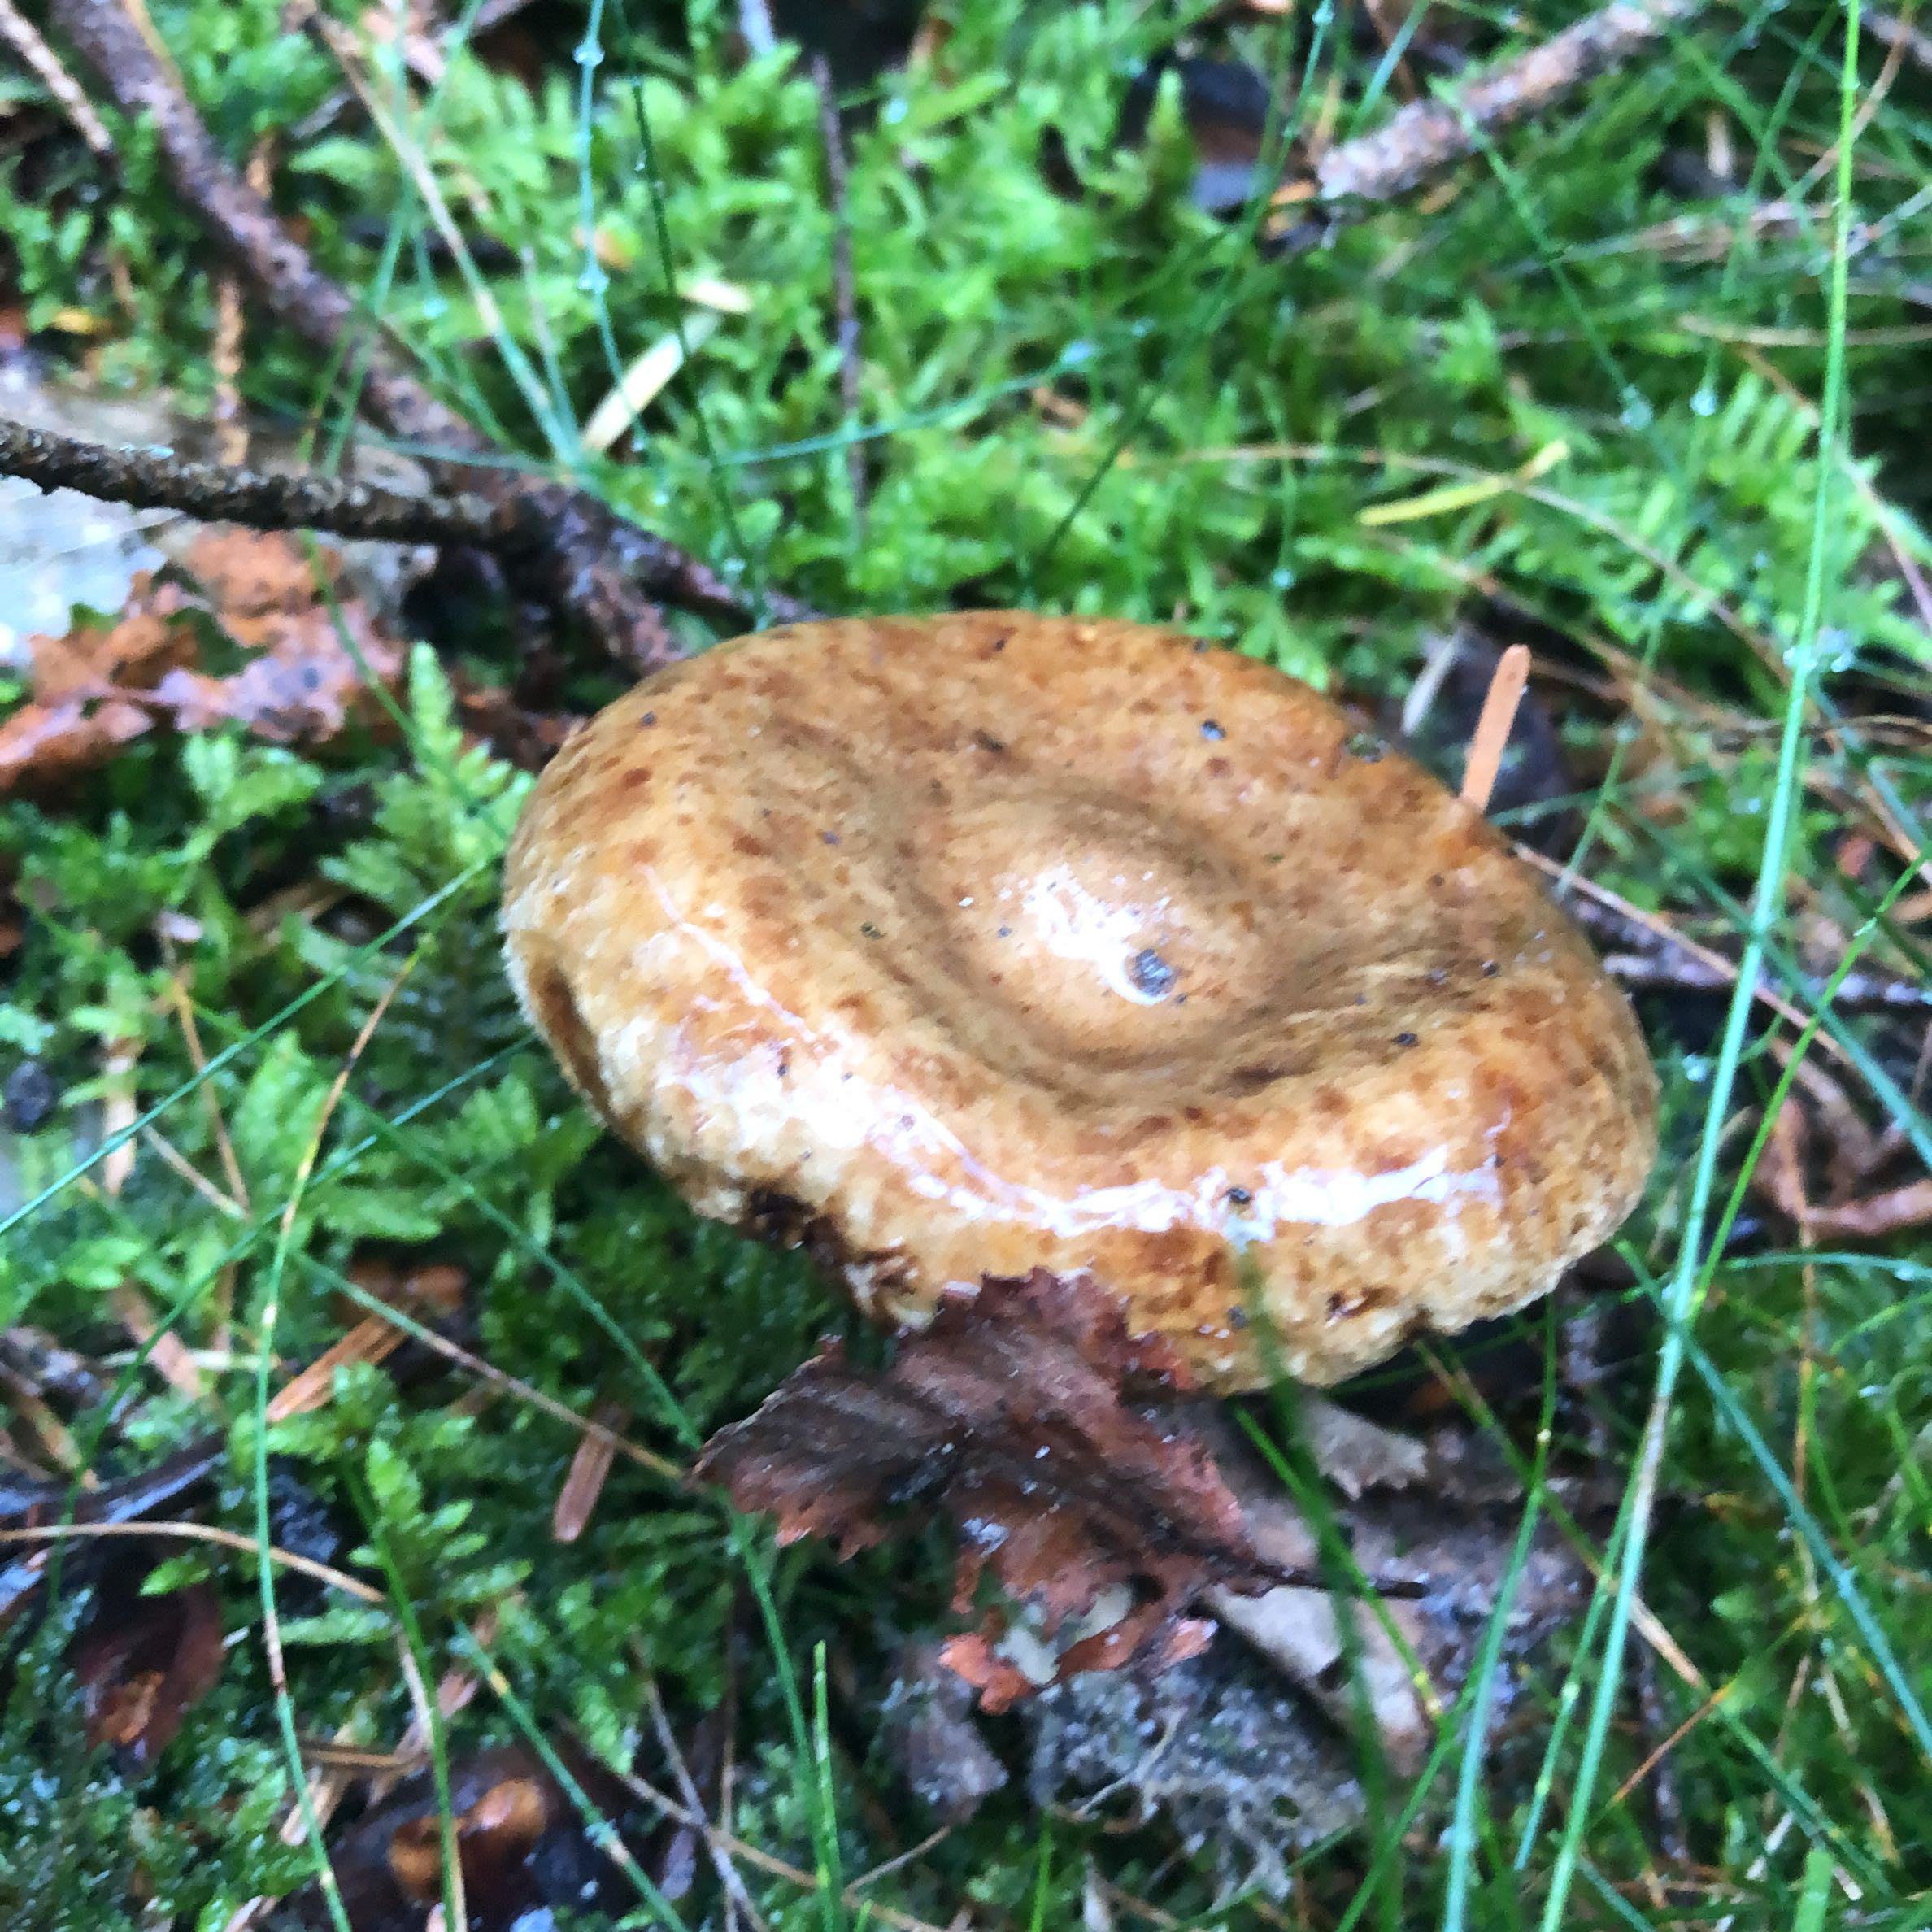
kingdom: Fungi
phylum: Basidiomycota
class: Agaricomycetes
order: Boletales
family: Paxillaceae
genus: Paxillus
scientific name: Paxillus involutus
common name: almindelig netbladhat
